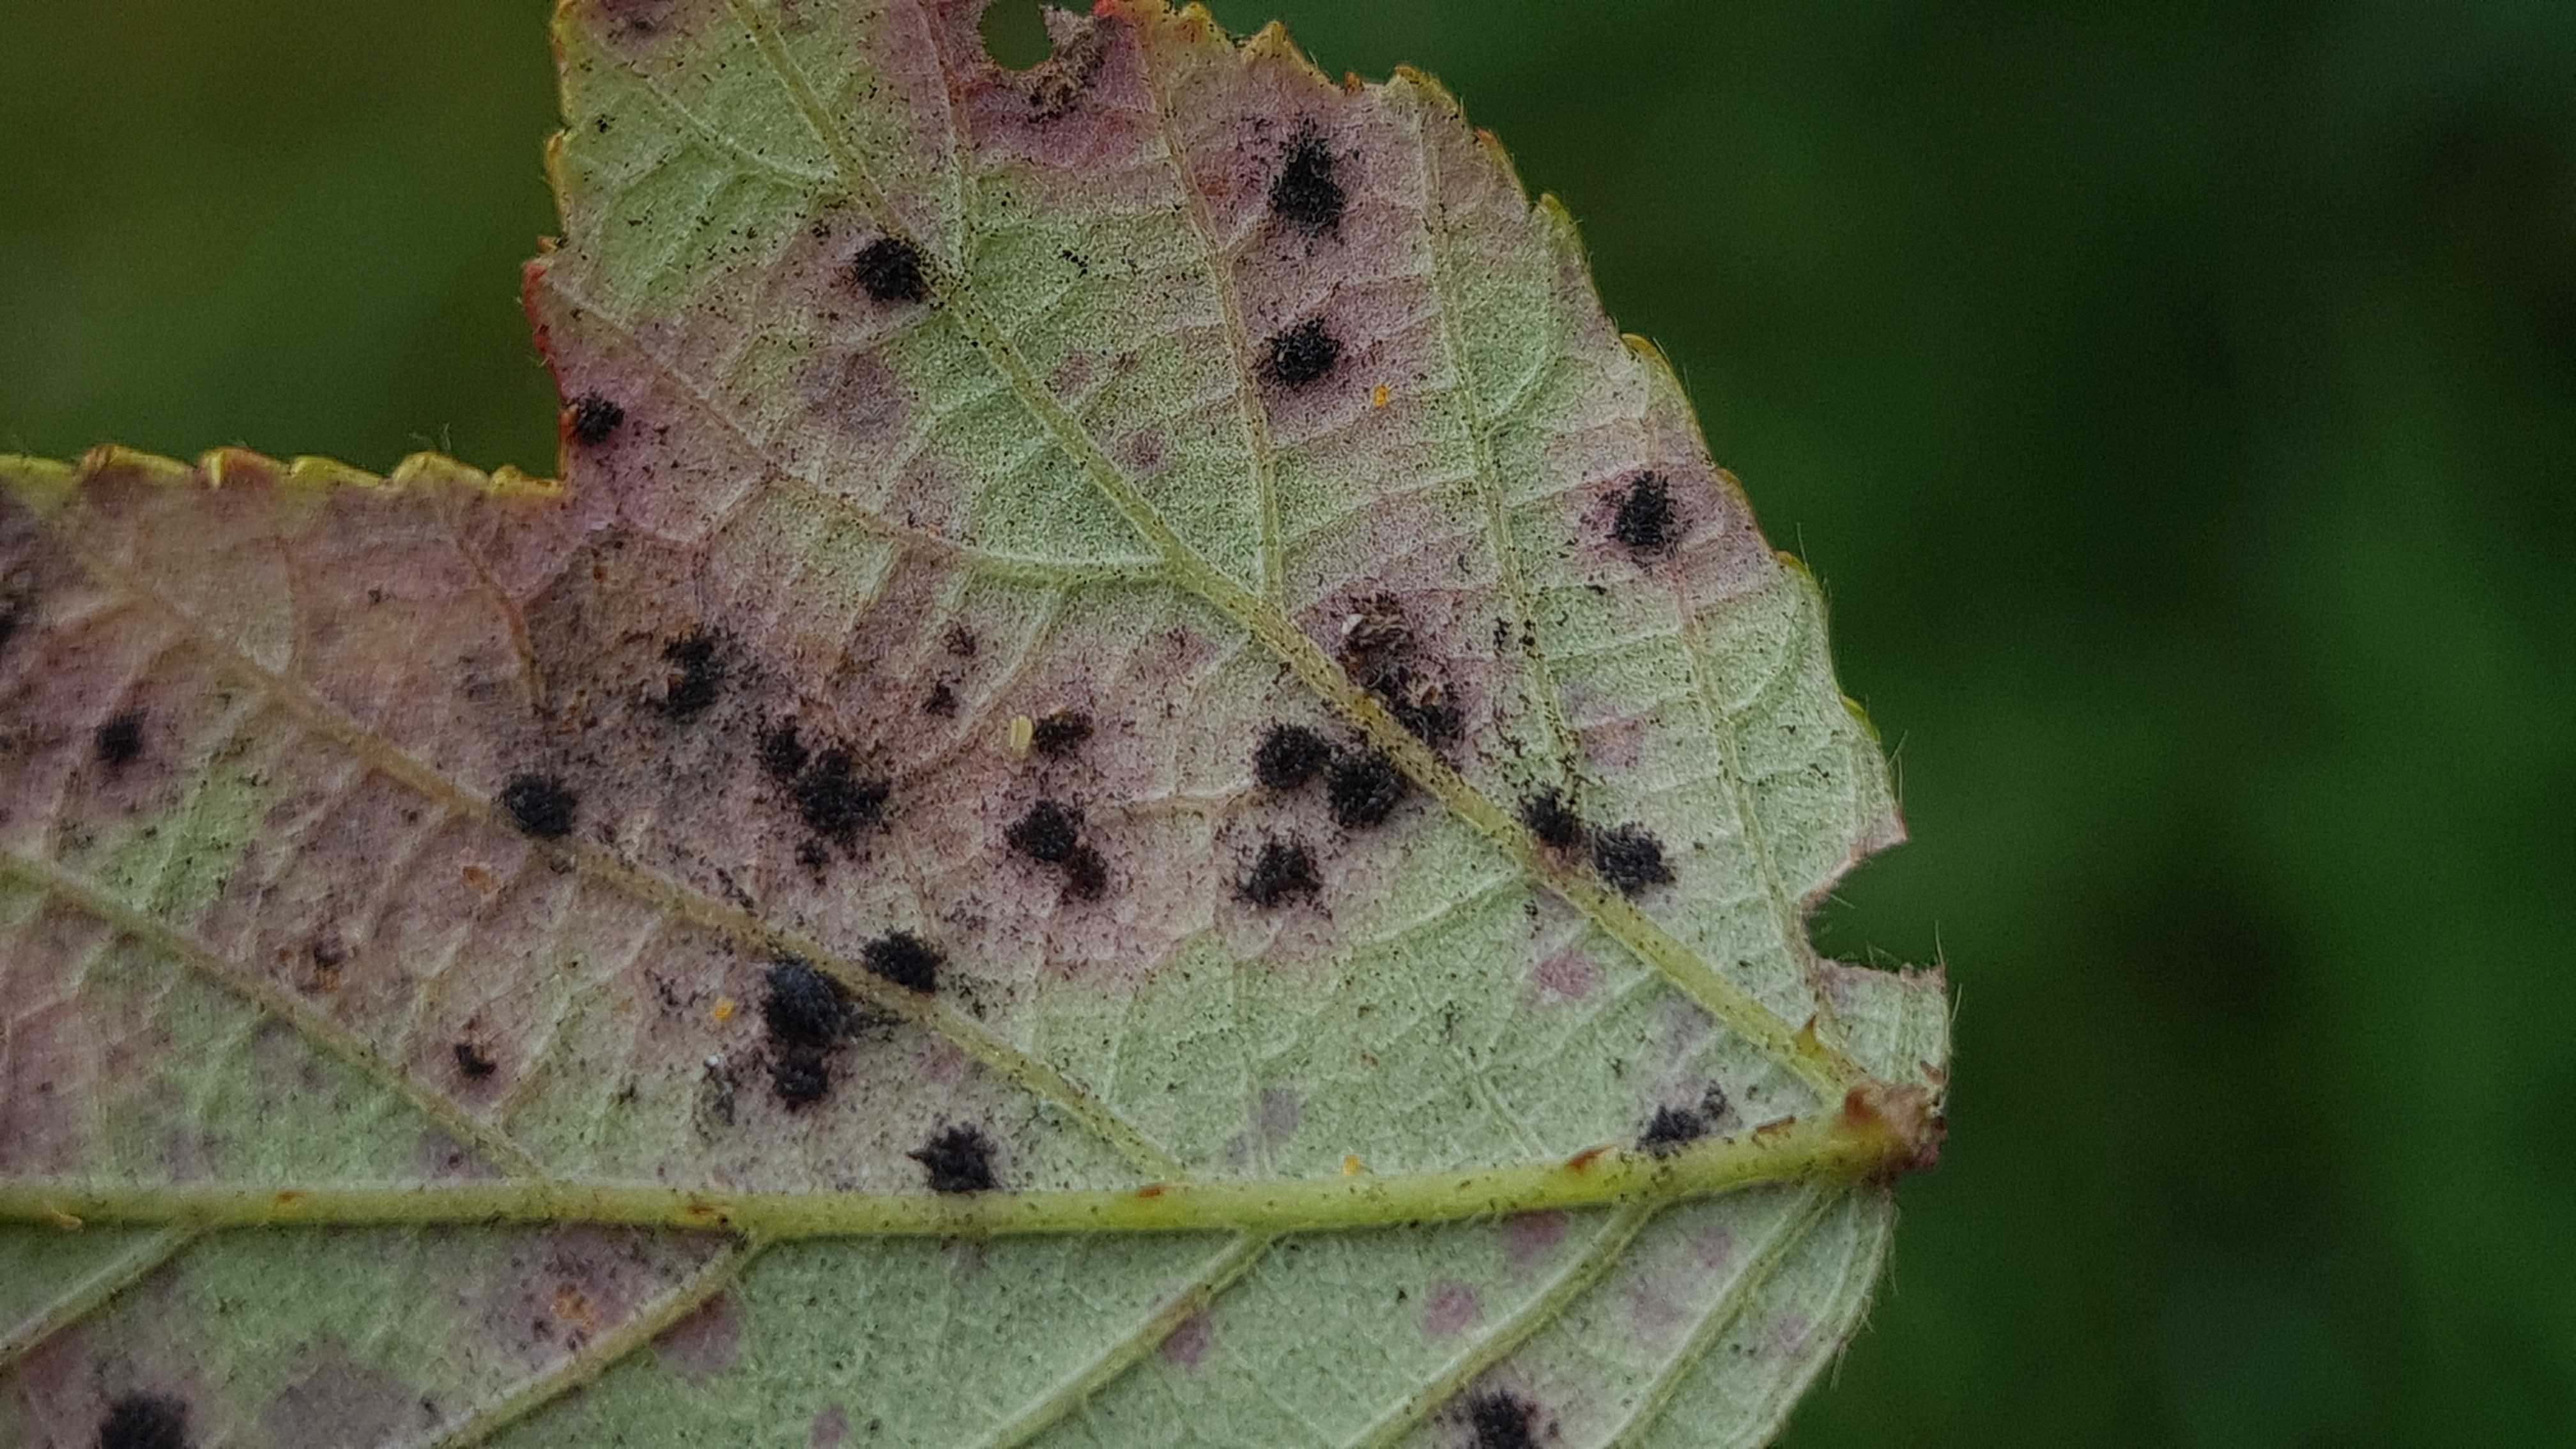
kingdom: Fungi
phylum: Basidiomycota
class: Pucciniomycetes
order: Pucciniales
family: Phragmidiaceae
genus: Phragmidium
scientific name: Phragmidium violaceum
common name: violet flercellerust
